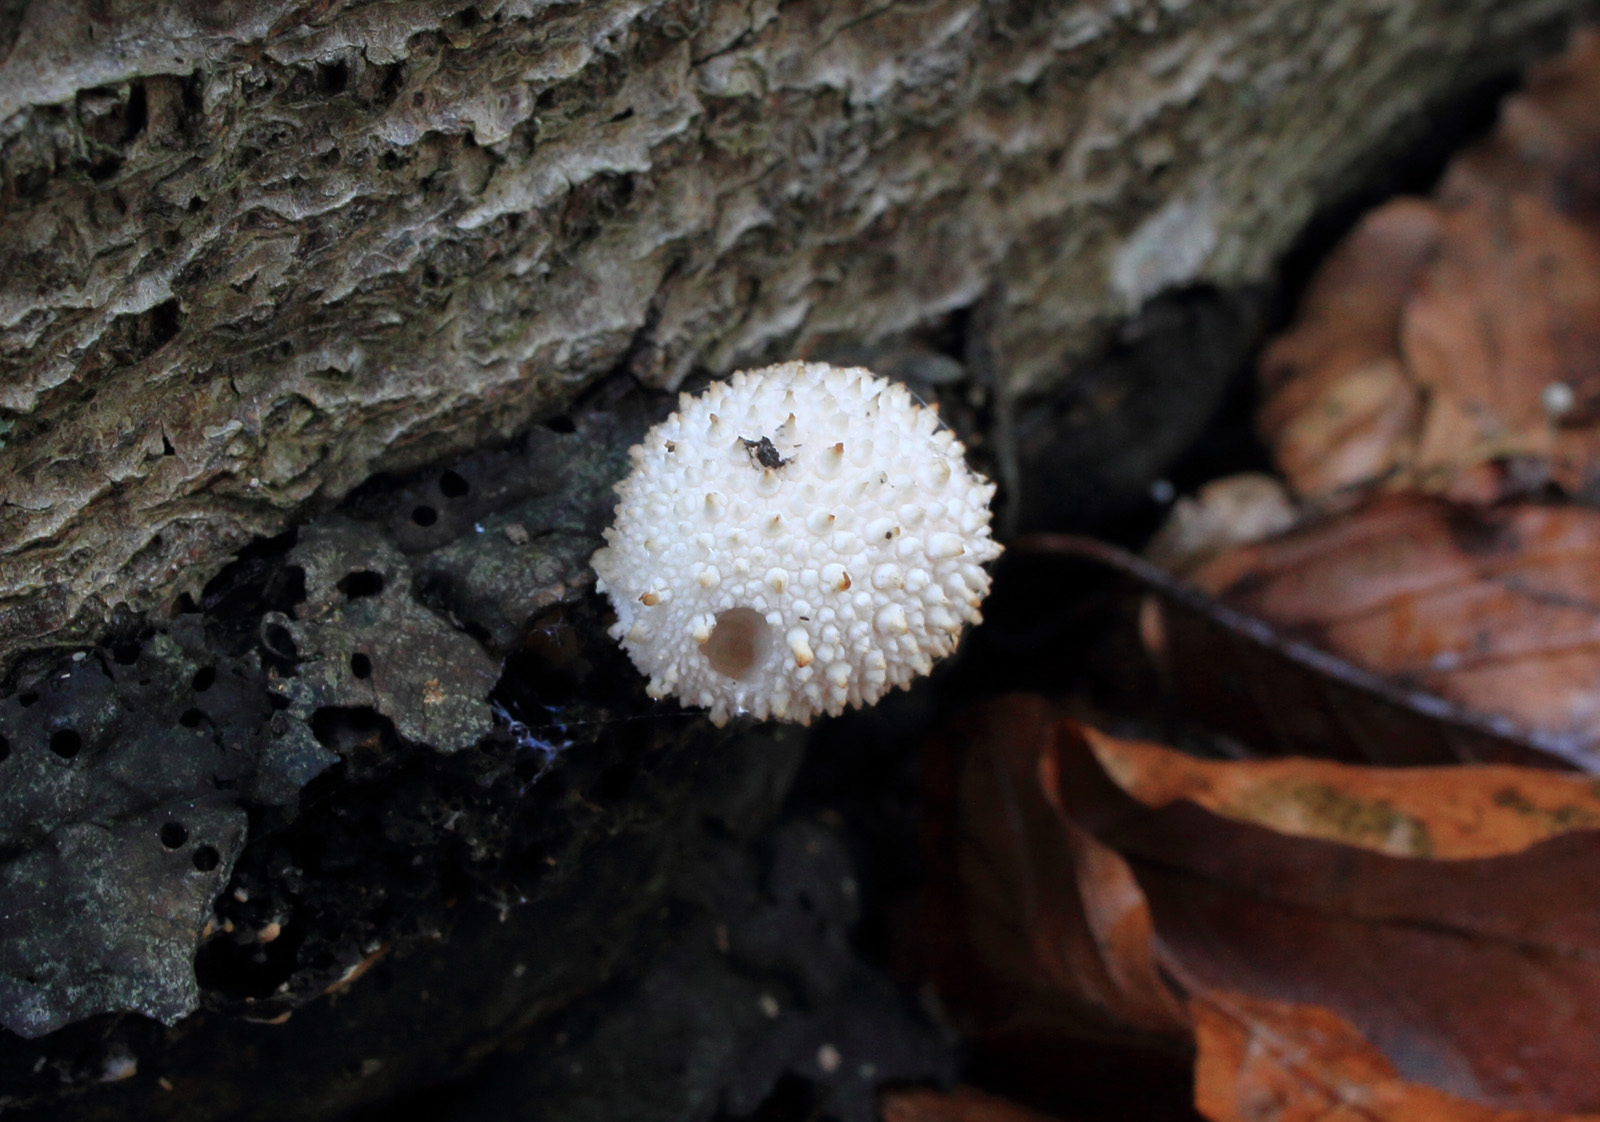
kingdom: Fungi
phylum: Basidiomycota
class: Agaricomycetes
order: Agaricales
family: Lycoperdaceae
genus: Lycoperdon
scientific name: Lycoperdon perlatum
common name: krystal-støvbold
